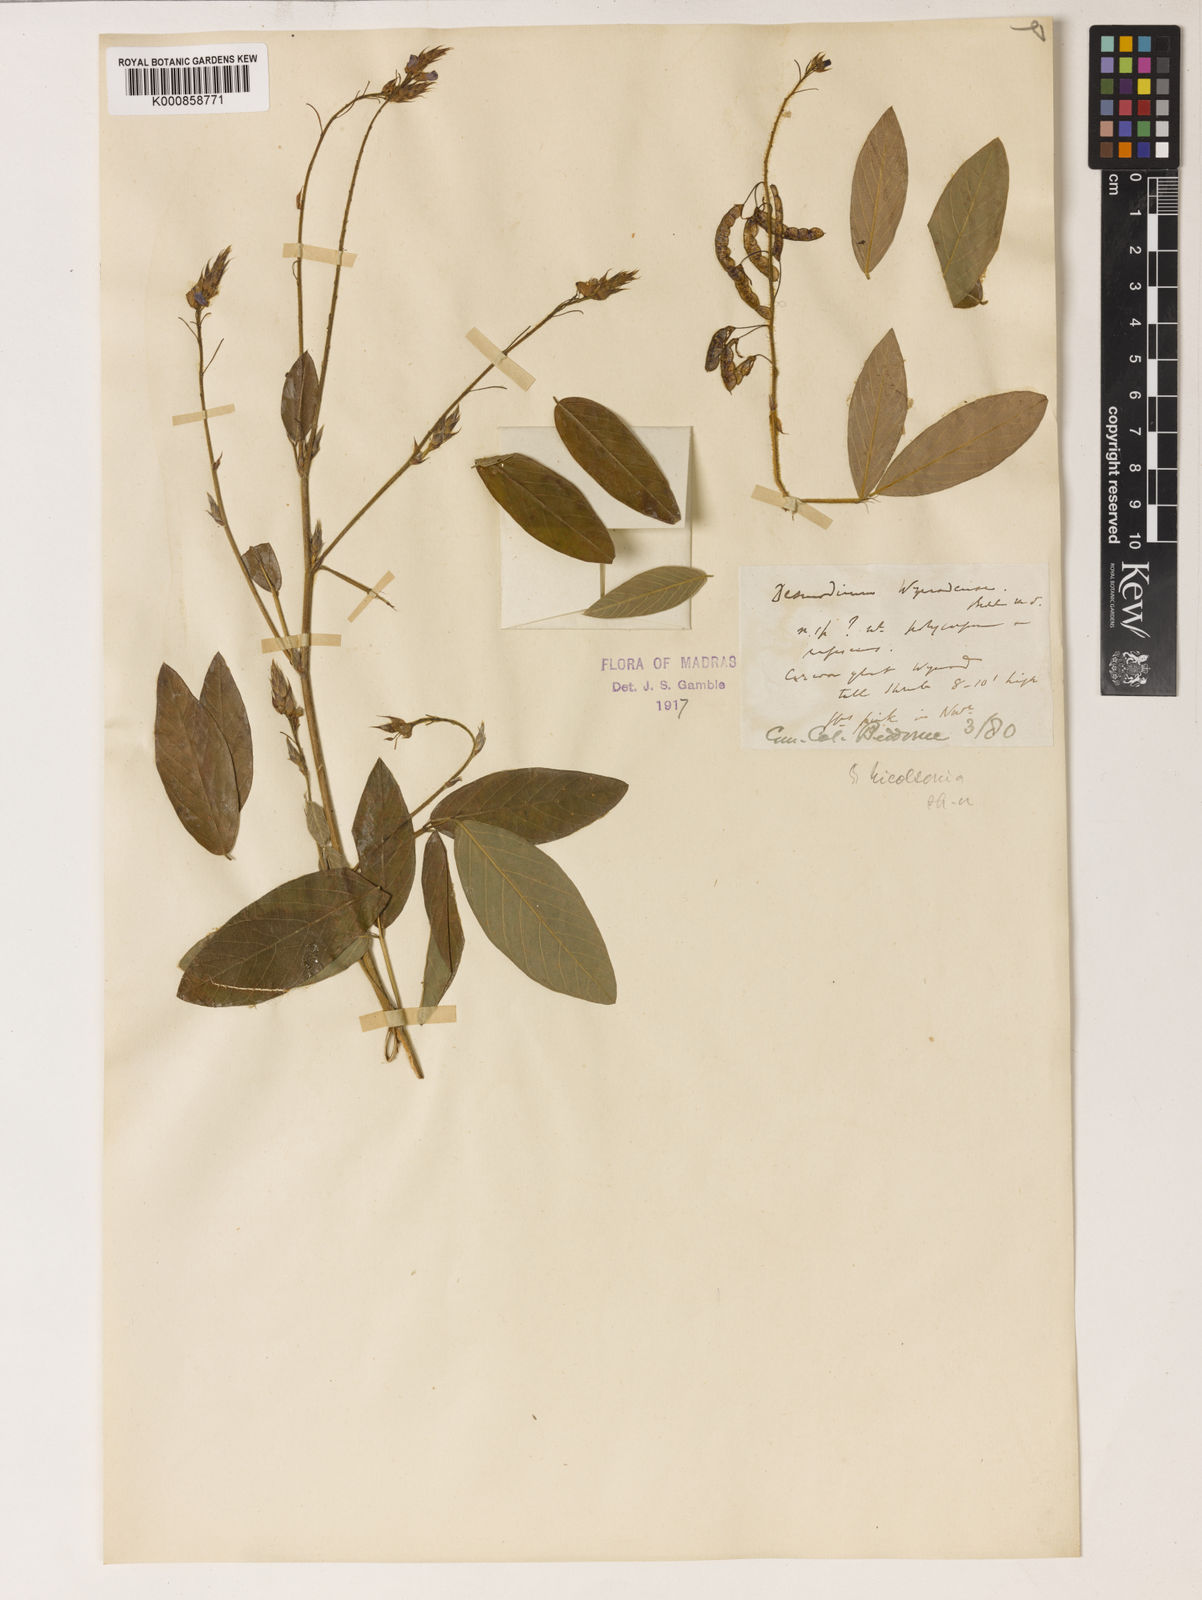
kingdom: Plantae
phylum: Tracheophyta
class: Magnoliopsida
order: Fabales
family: Fabaceae
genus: Grona
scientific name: Grona wynaadensis
